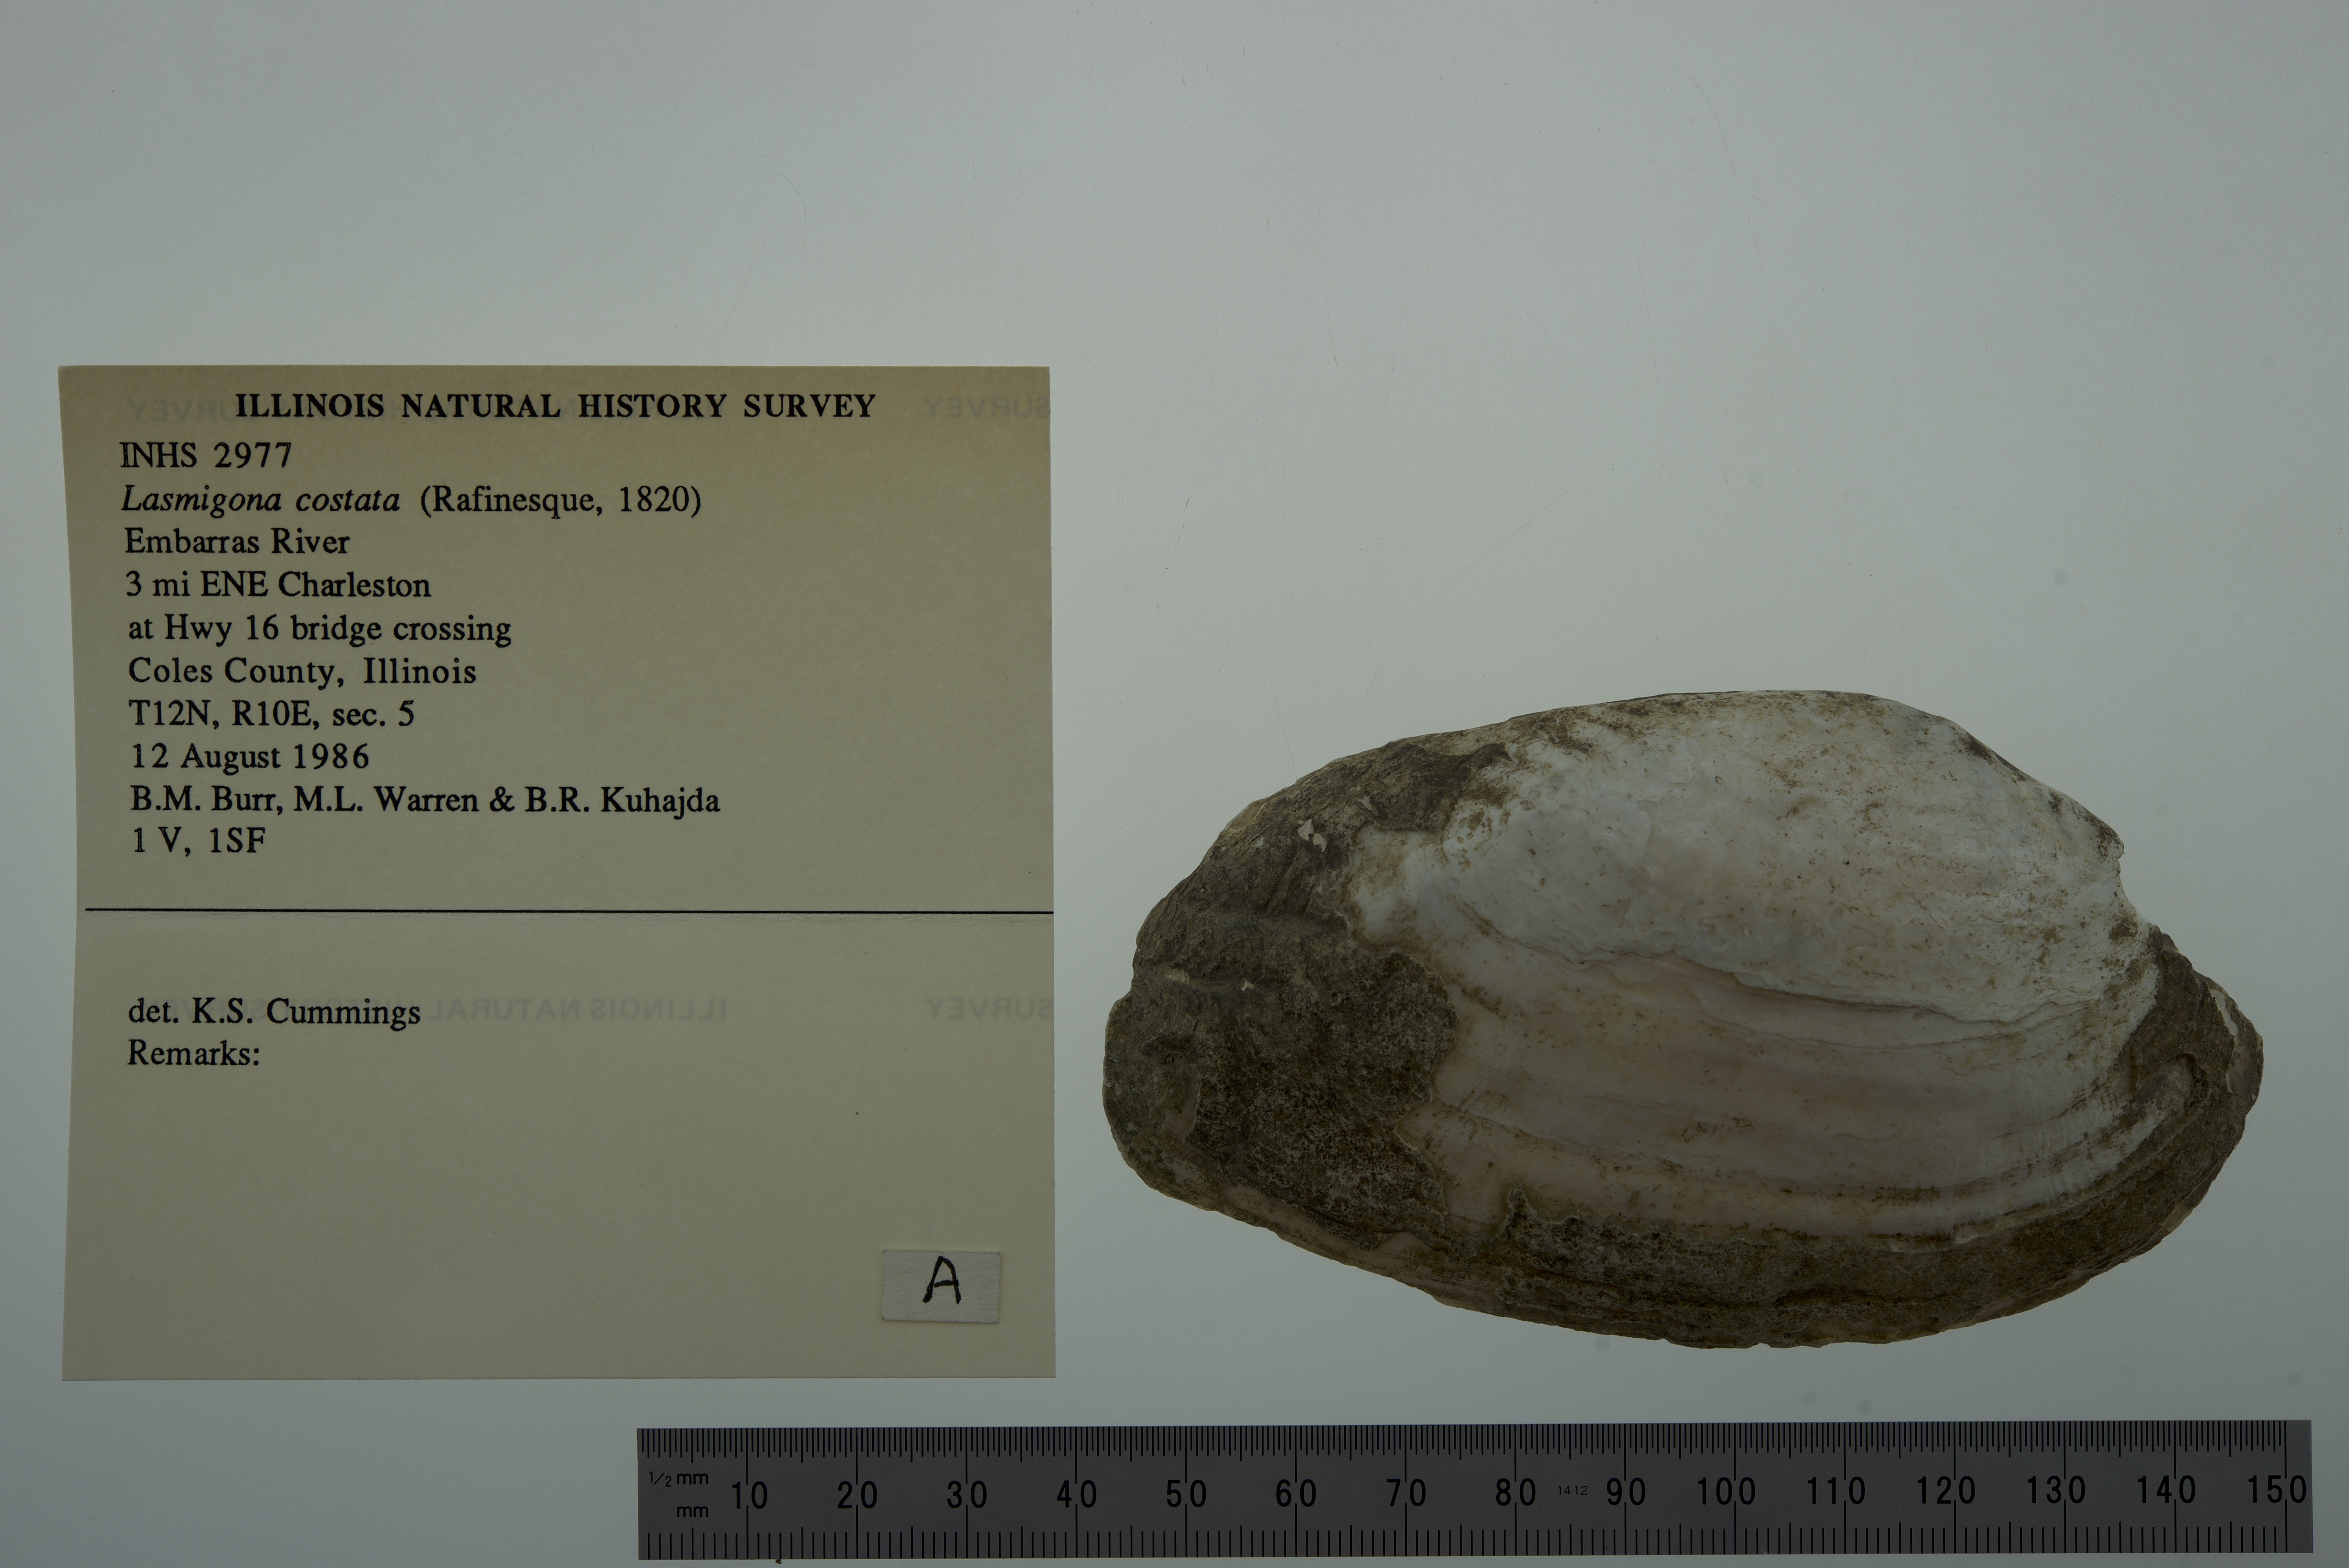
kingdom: Animalia
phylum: Mollusca
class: Bivalvia
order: Unionida
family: Unionidae
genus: Lasmigona
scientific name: Lasmigona costata
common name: Flutedshell
